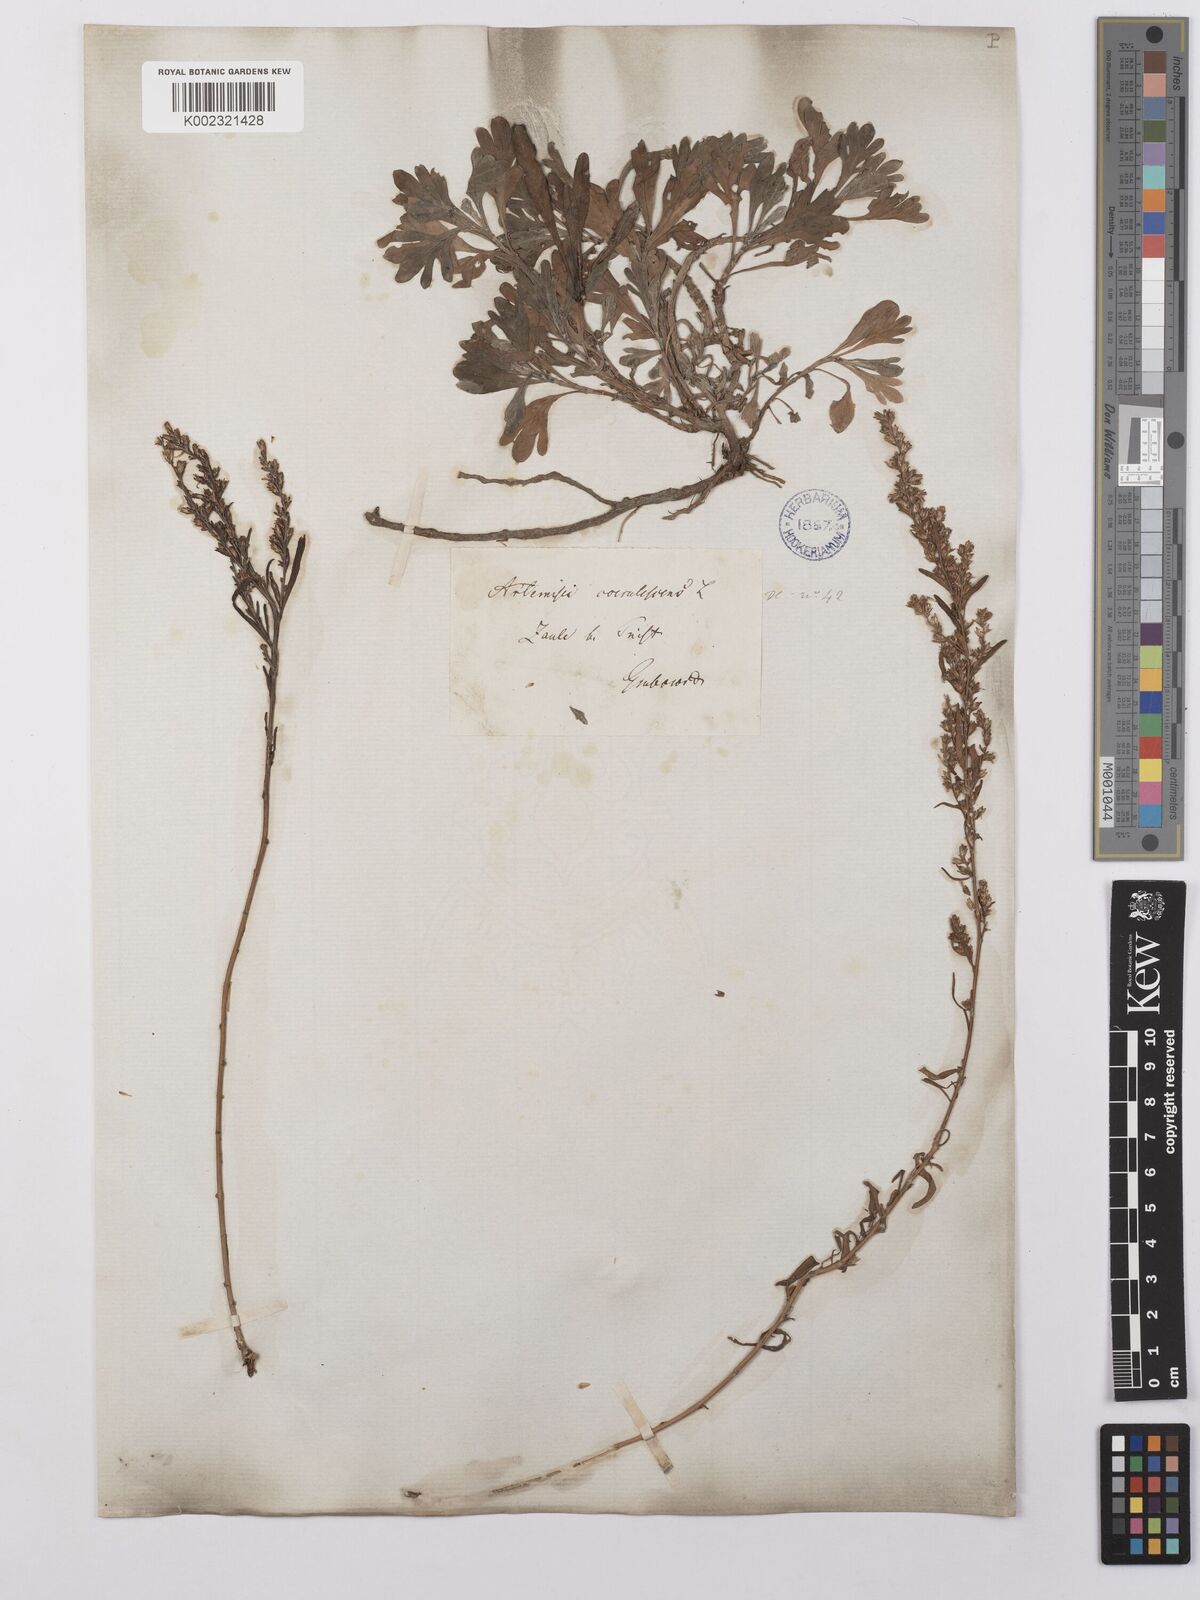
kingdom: Plantae
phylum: Tracheophyta
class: Magnoliopsida
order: Asterales
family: Asteraceae
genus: Artemisia
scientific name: Artemisia caerulescens
